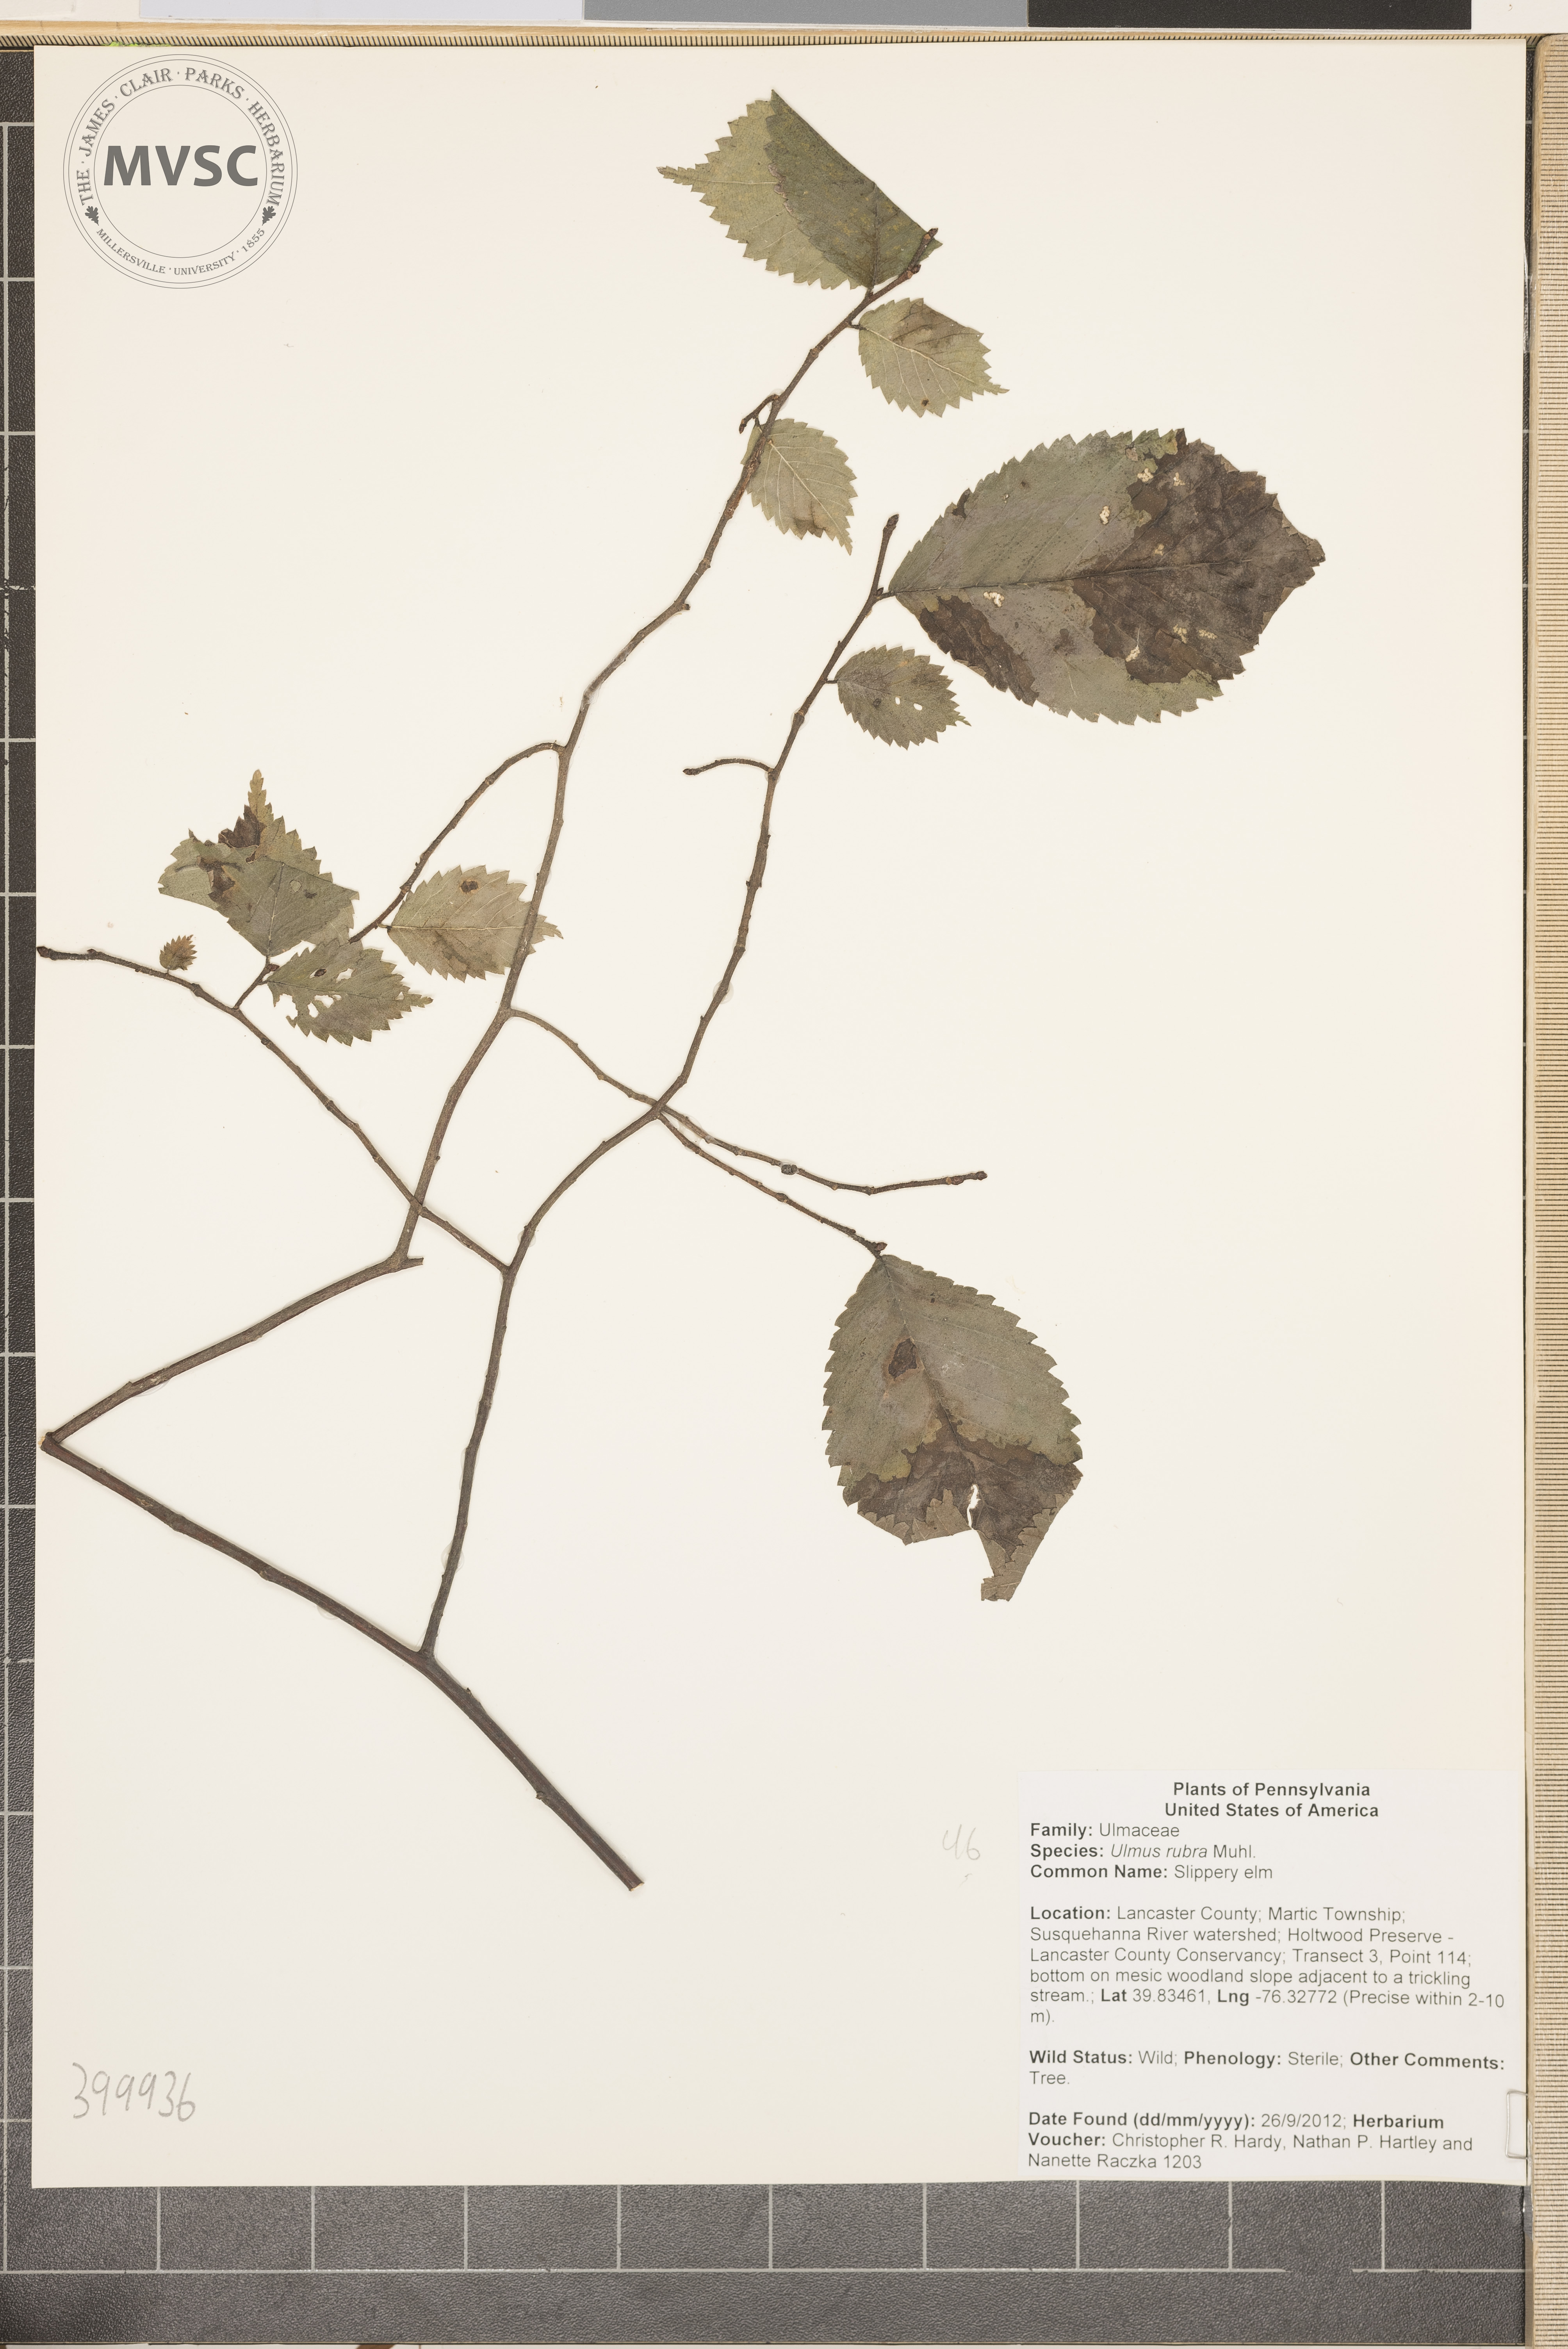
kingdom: Plantae
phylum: Tracheophyta
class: Magnoliopsida
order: Rosales
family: Ulmaceae
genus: Ulmus
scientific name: Ulmus rubra
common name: Slippery elm
